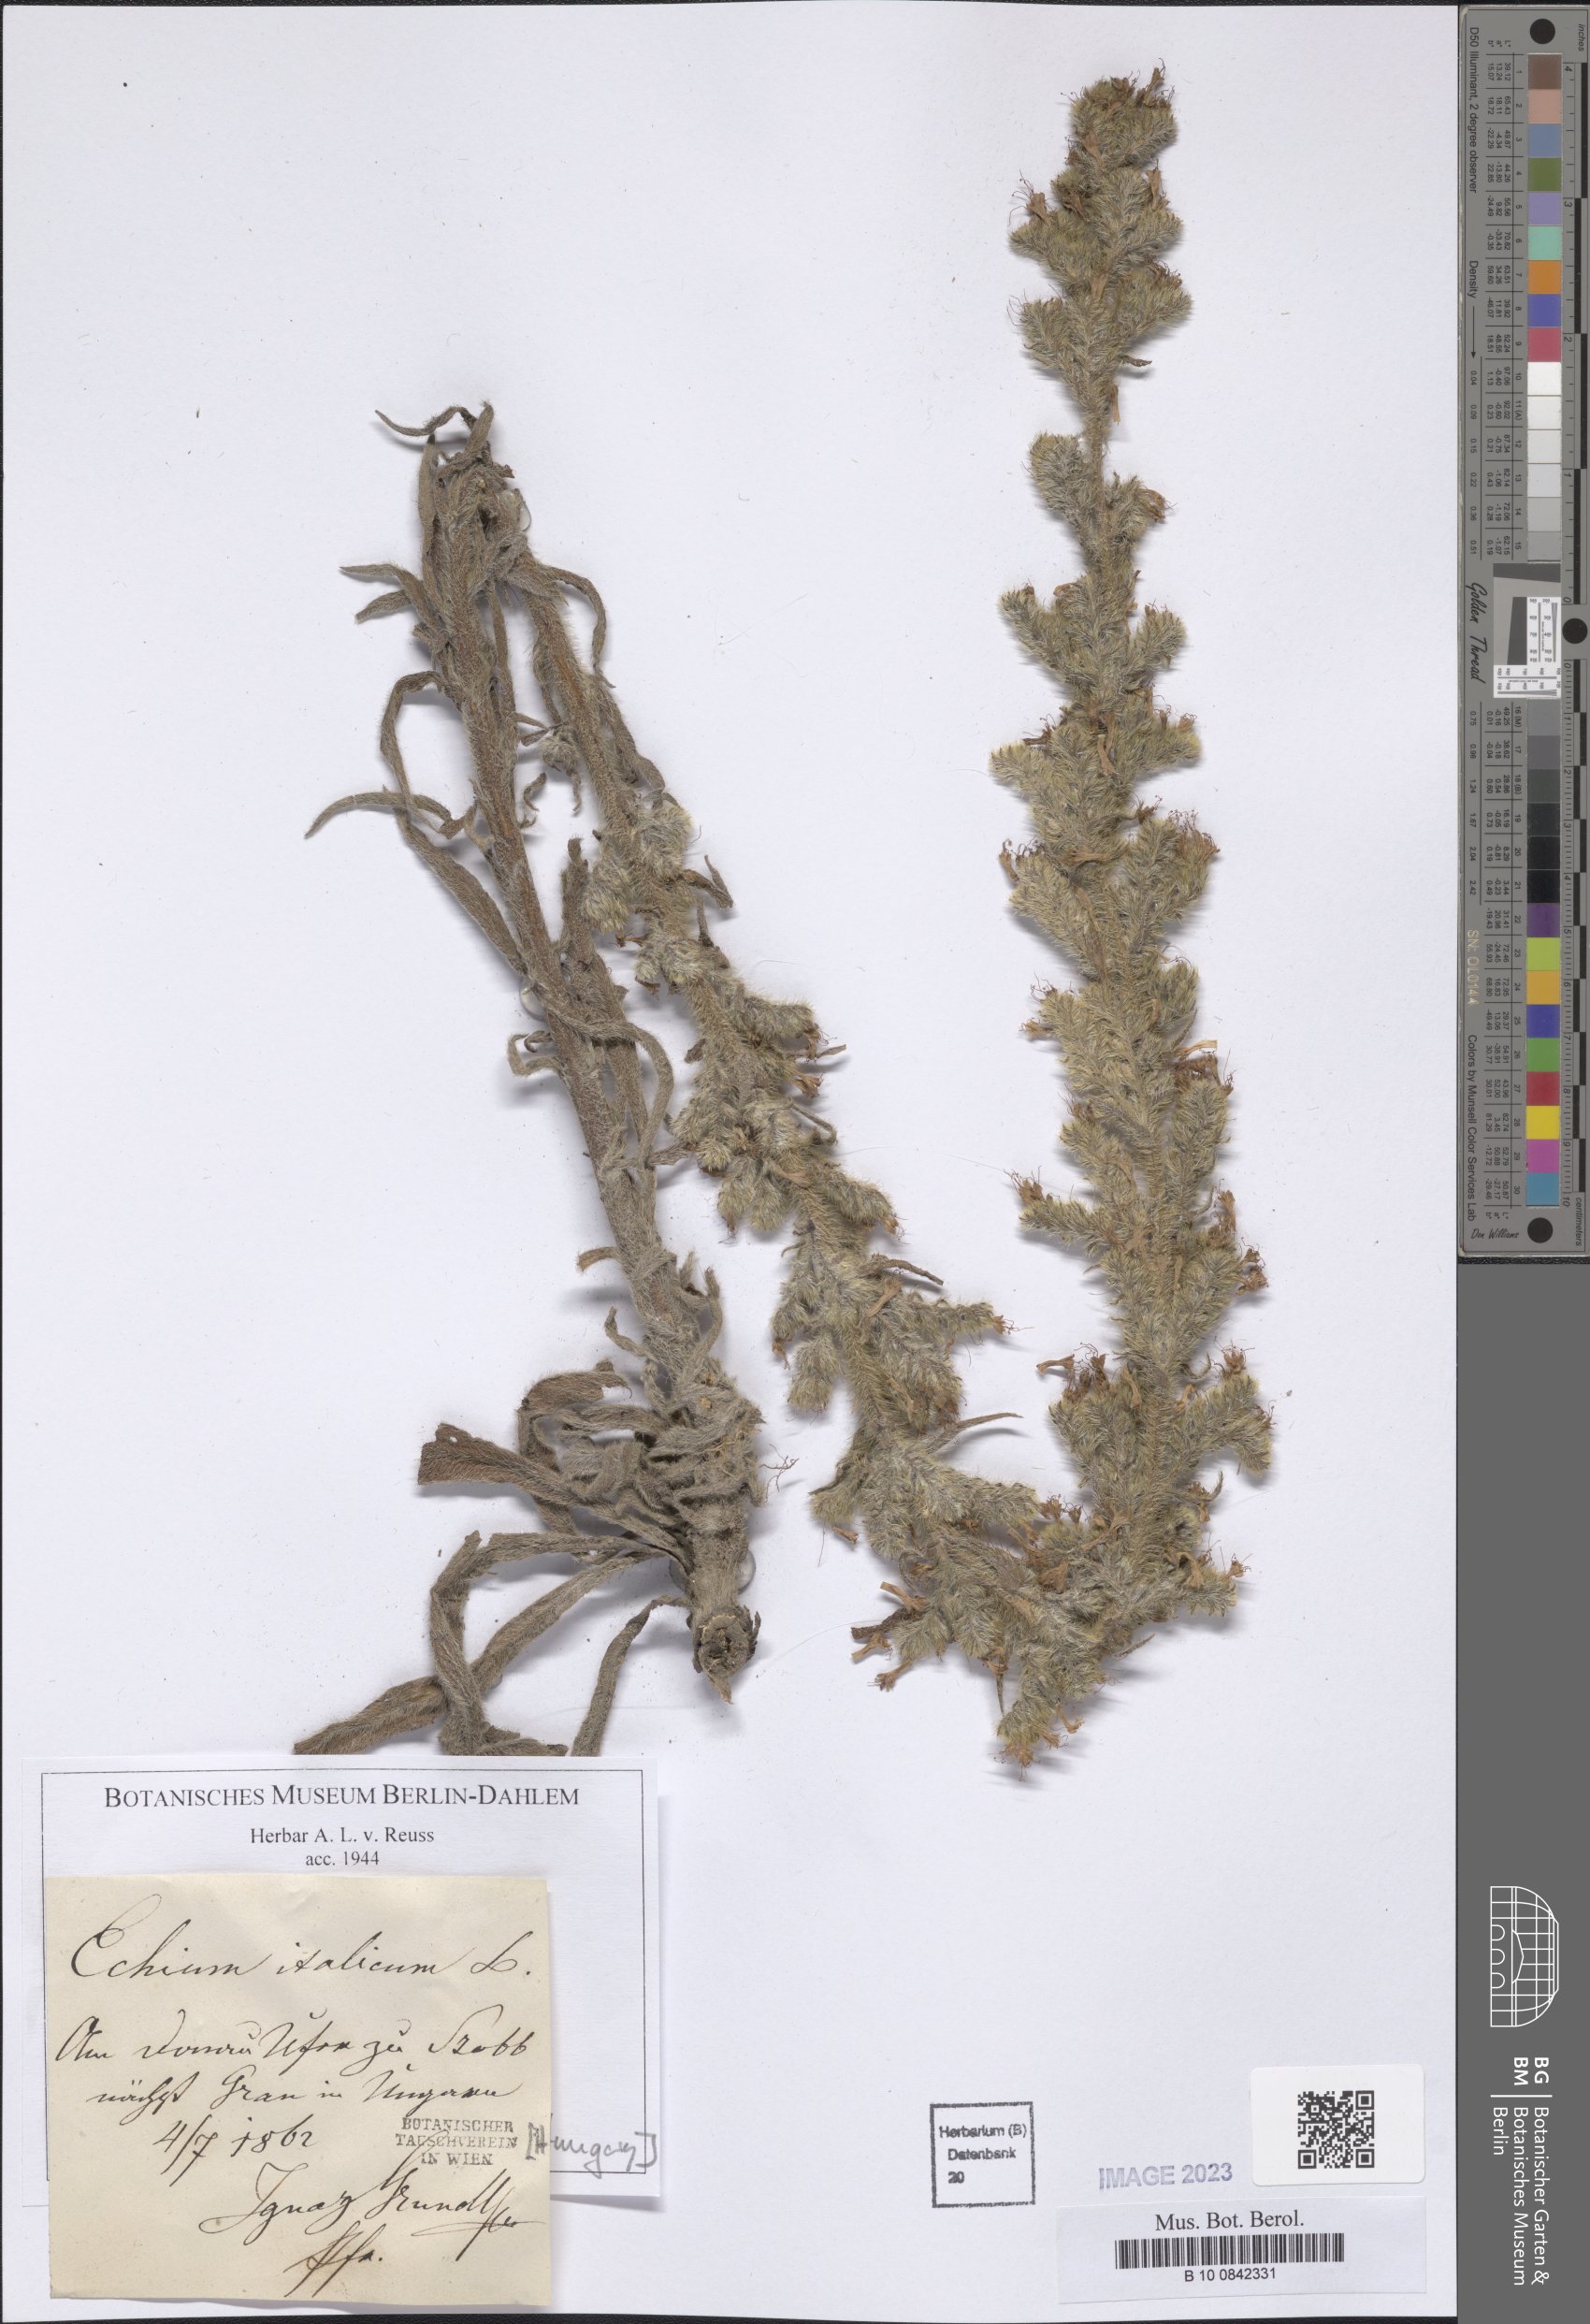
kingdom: Plantae
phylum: Tracheophyta
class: Magnoliopsida
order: Boraginales
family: Boraginaceae
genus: Echium
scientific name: Echium italicum
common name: Italian viper's bugloss
